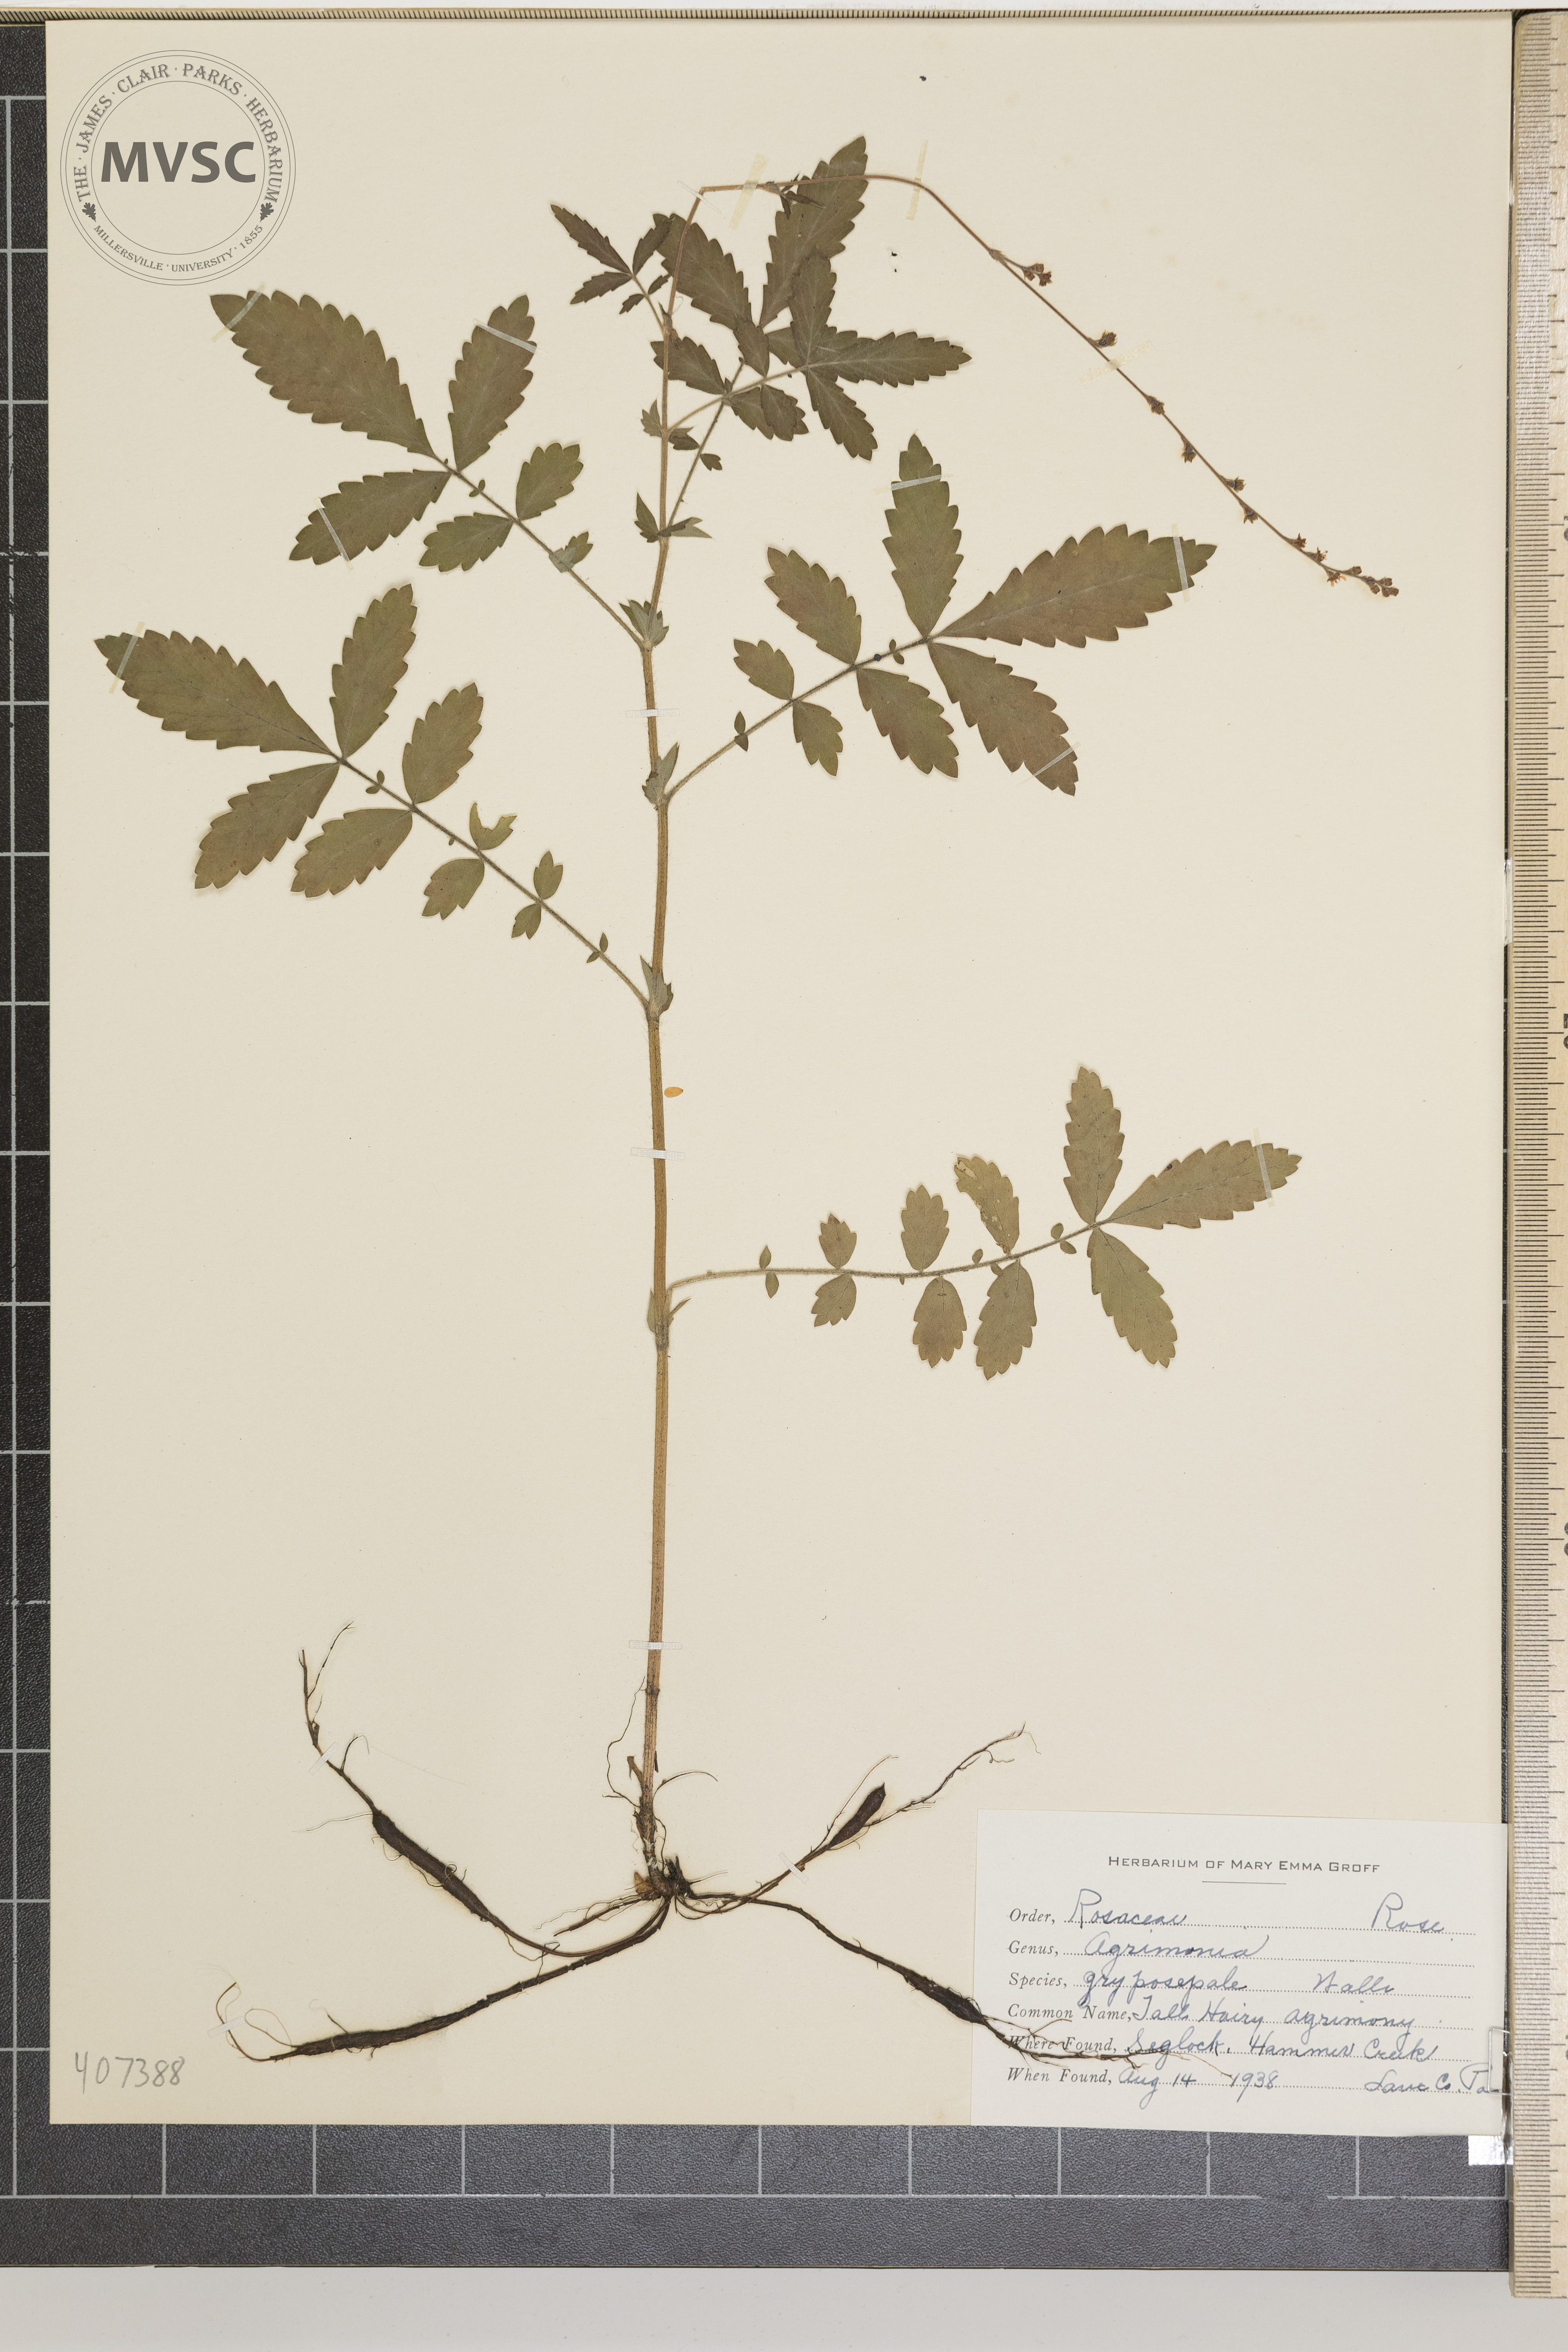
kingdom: Plantae
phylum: Tracheophyta
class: Magnoliopsida
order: Rosales
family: Rosaceae
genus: Agrimonia
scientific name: Agrimonia gryposepala
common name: Tall Hairy agrimony
